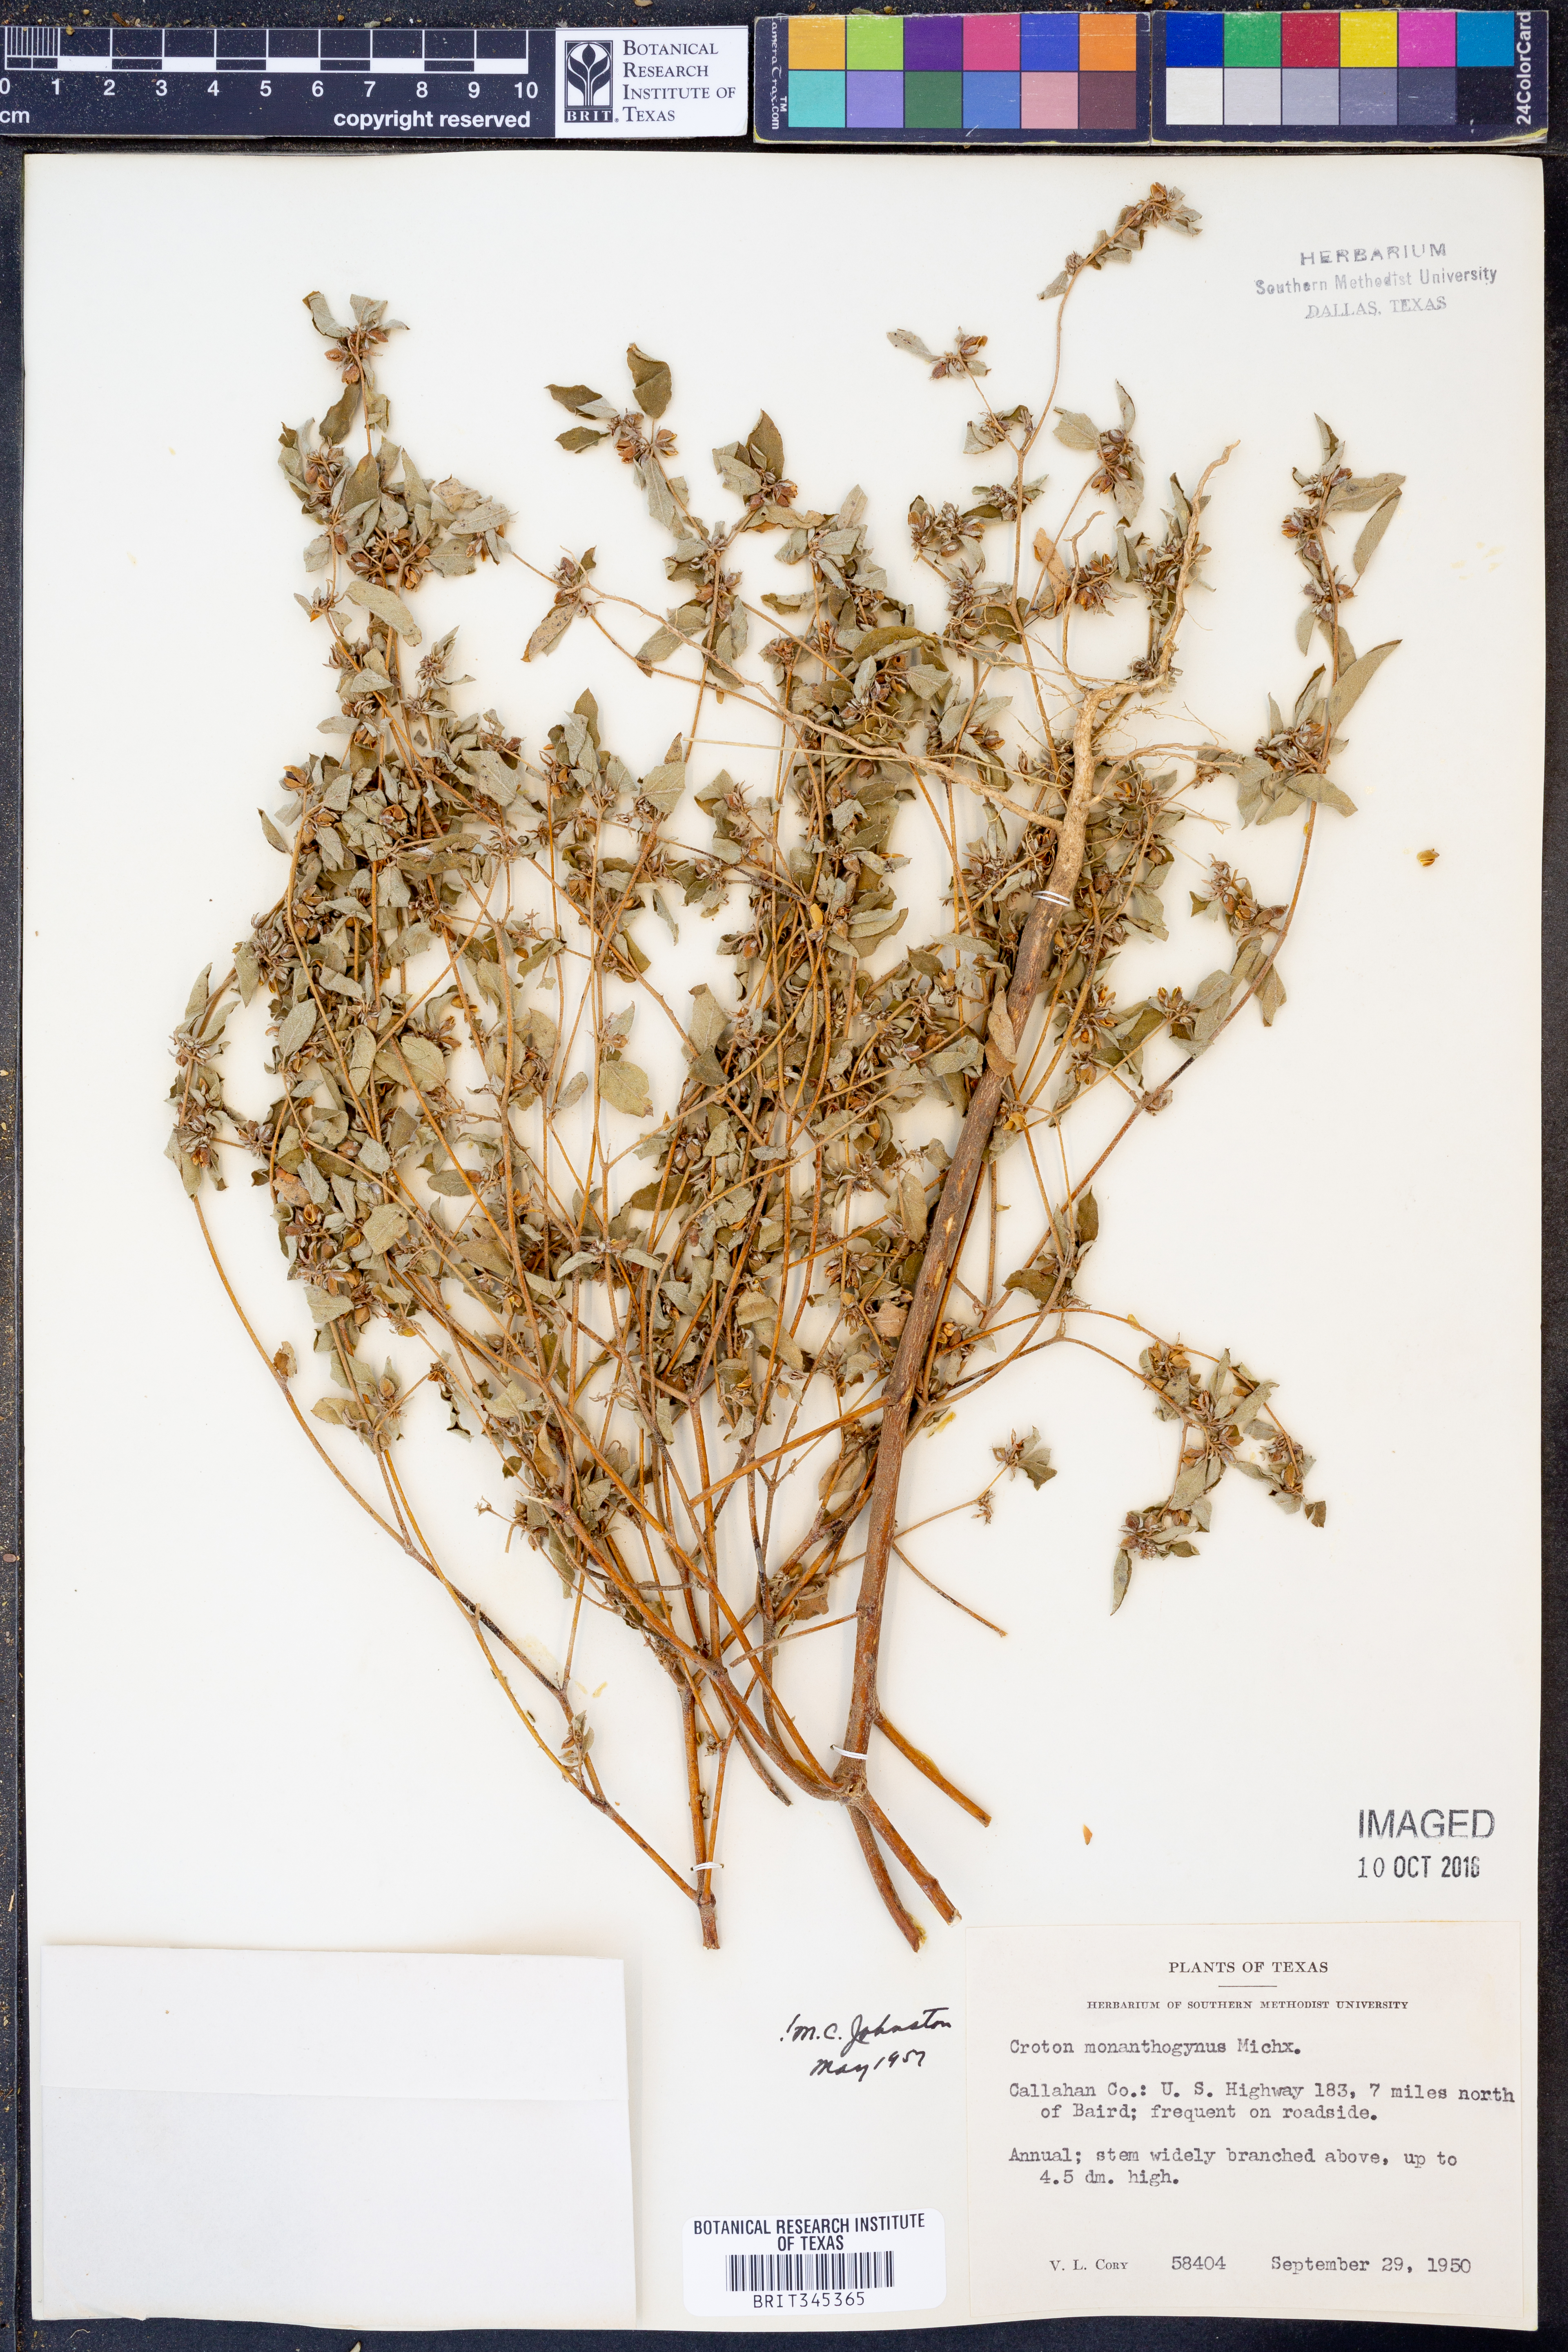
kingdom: Plantae
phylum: Tracheophyta
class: Magnoliopsida
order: Malpighiales
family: Euphorbiaceae
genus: Croton
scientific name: Croton monanthogynus
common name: One-seed croton
